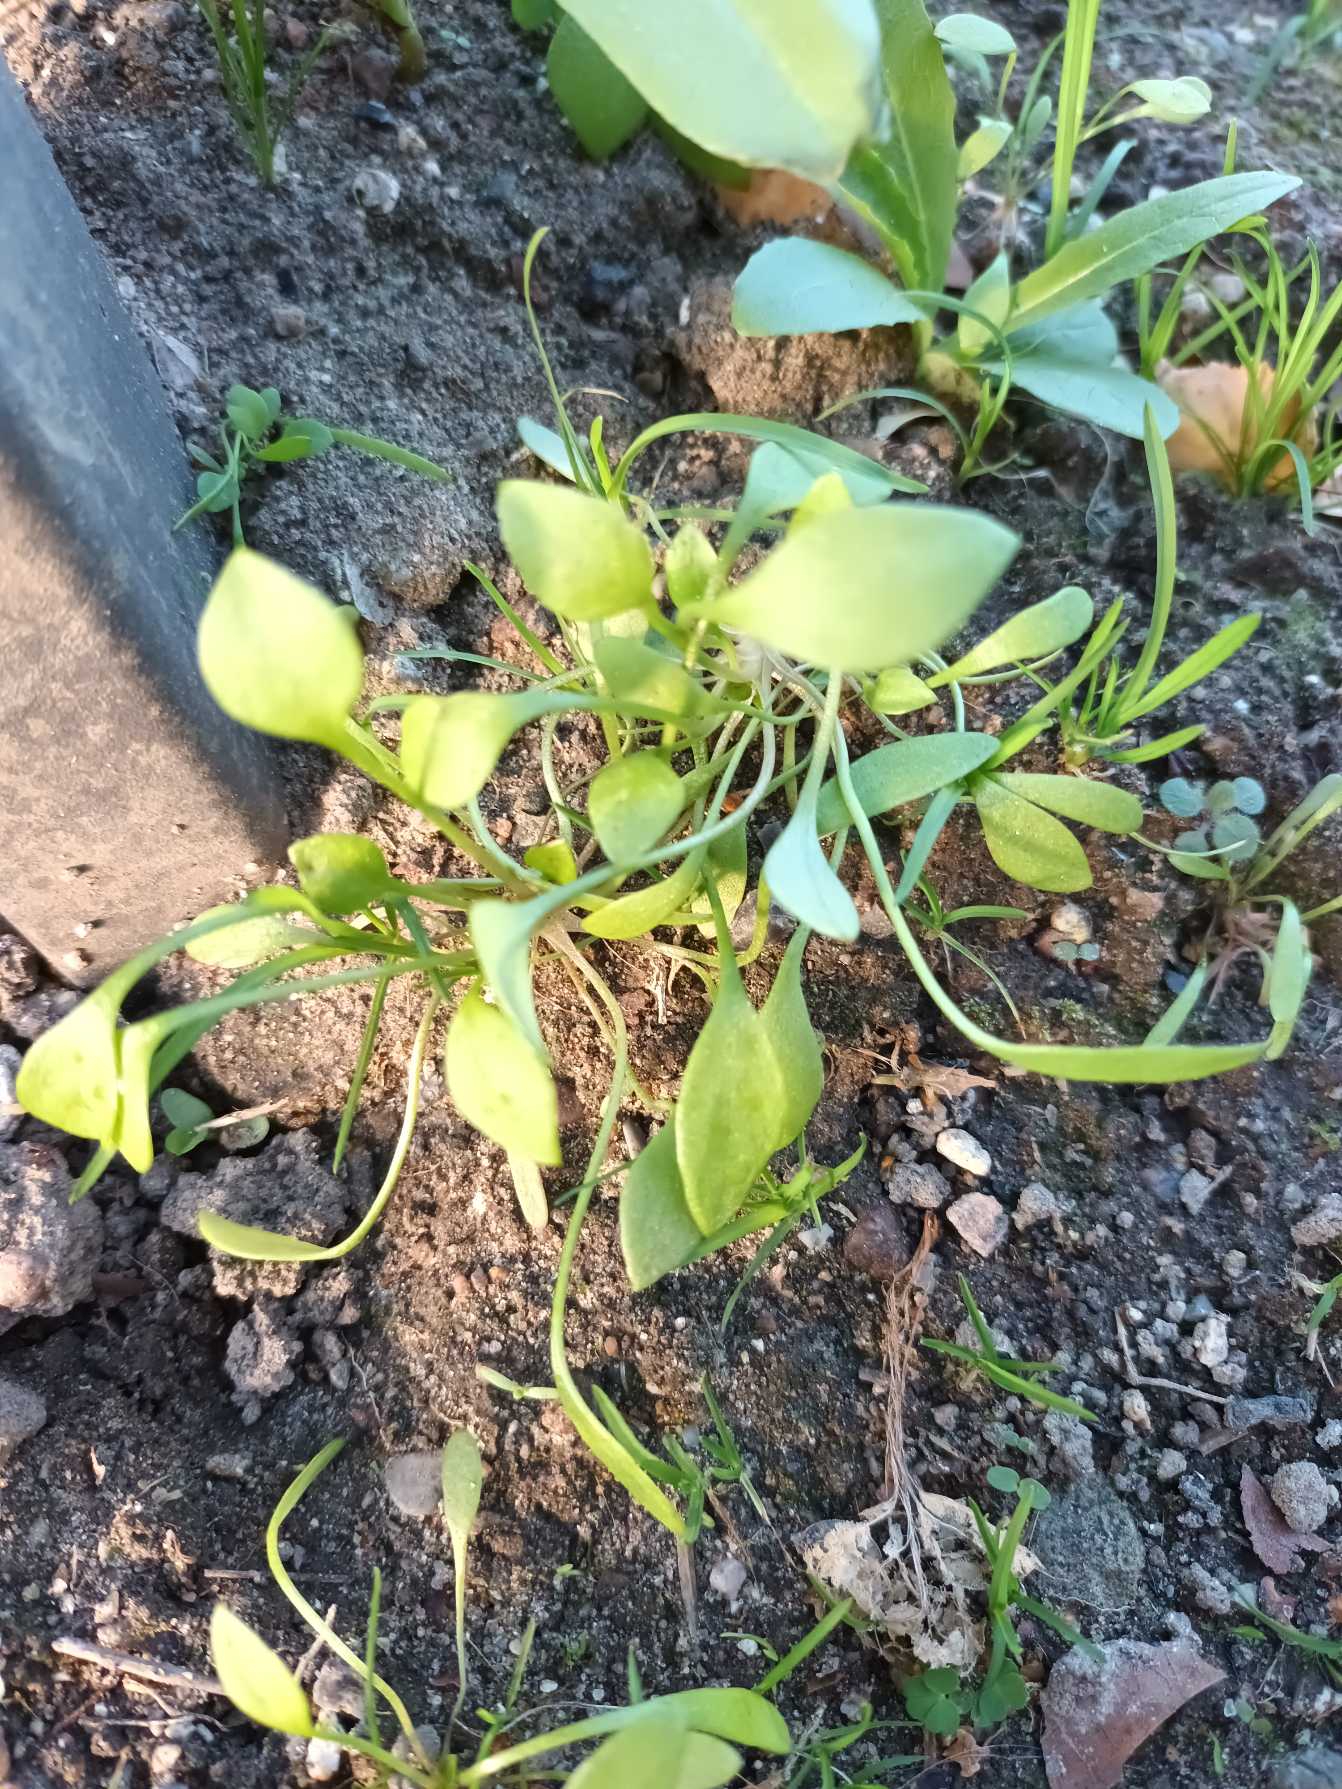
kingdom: Plantae
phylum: Tracheophyta
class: Magnoliopsida
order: Caryophyllales
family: Montiaceae
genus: Claytonia
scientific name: Claytonia perfoliata
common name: Spiselig vinterportulak
